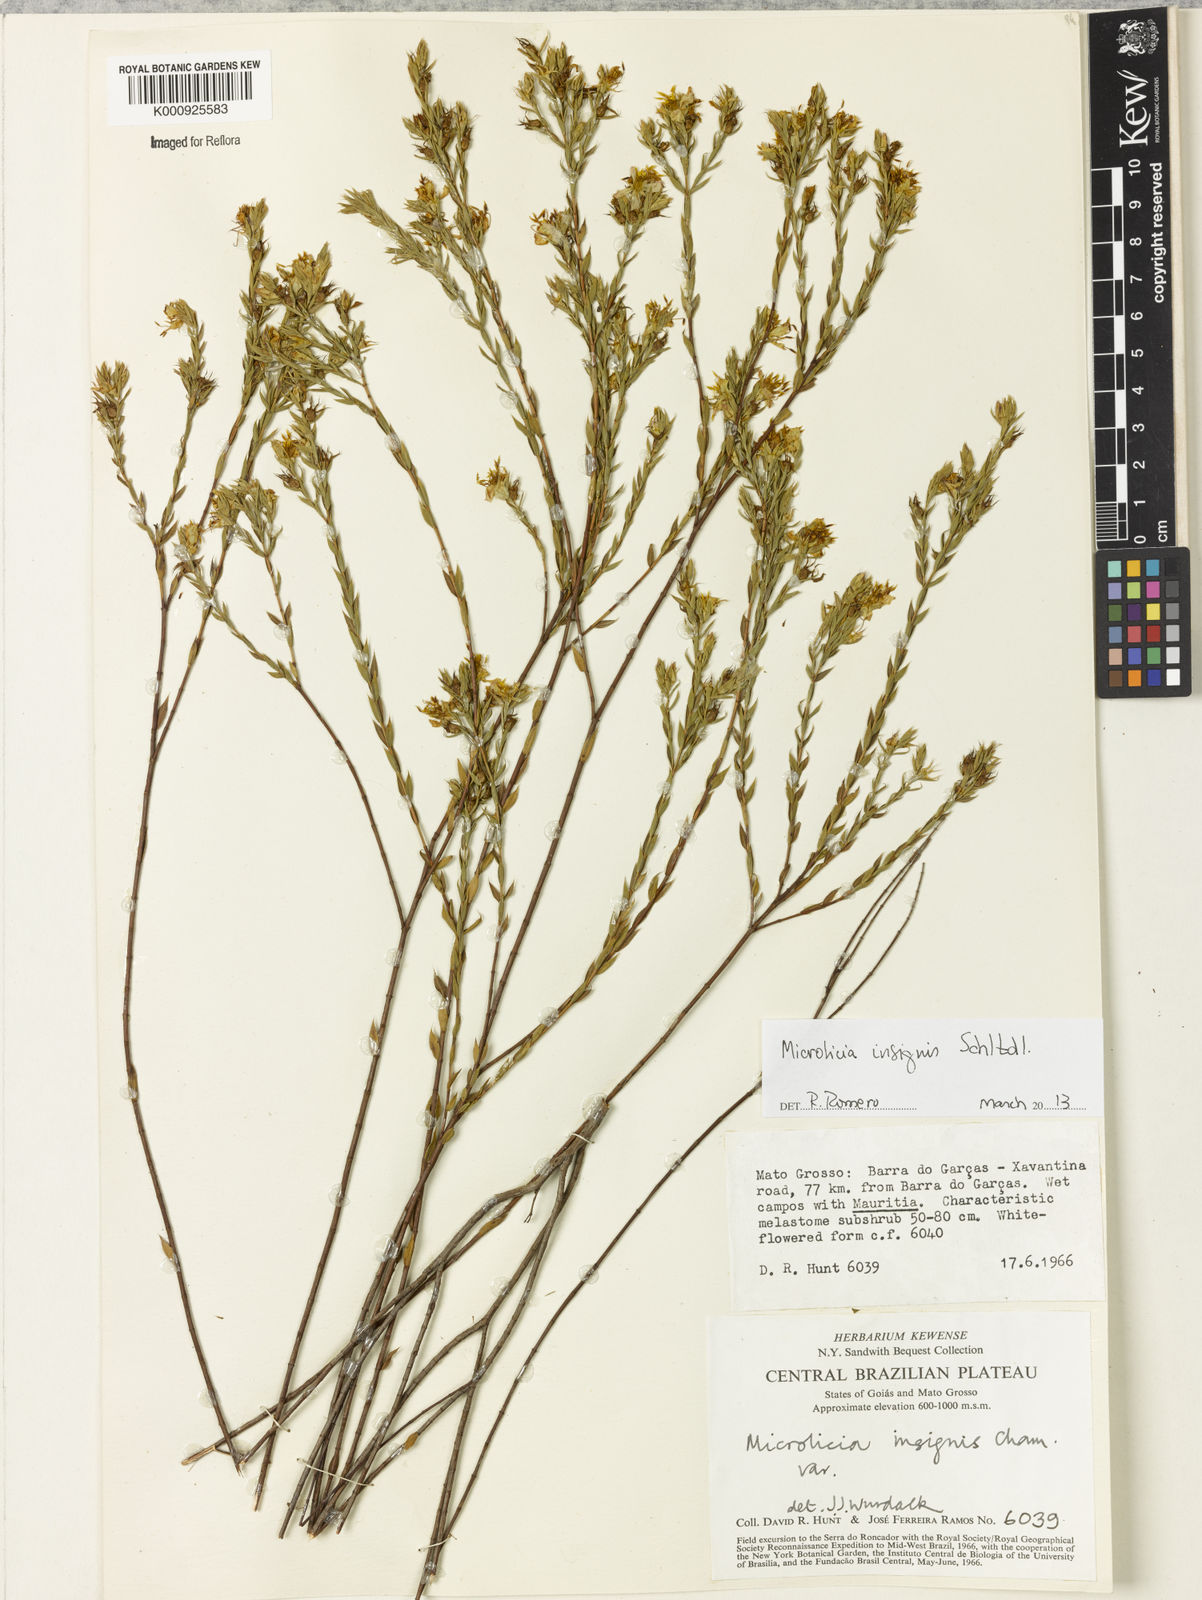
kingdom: Plantae
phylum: Tracheophyta
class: Magnoliopsida
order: Myrtales
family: Melastomataceae
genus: Microlicia
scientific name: Microlicia
